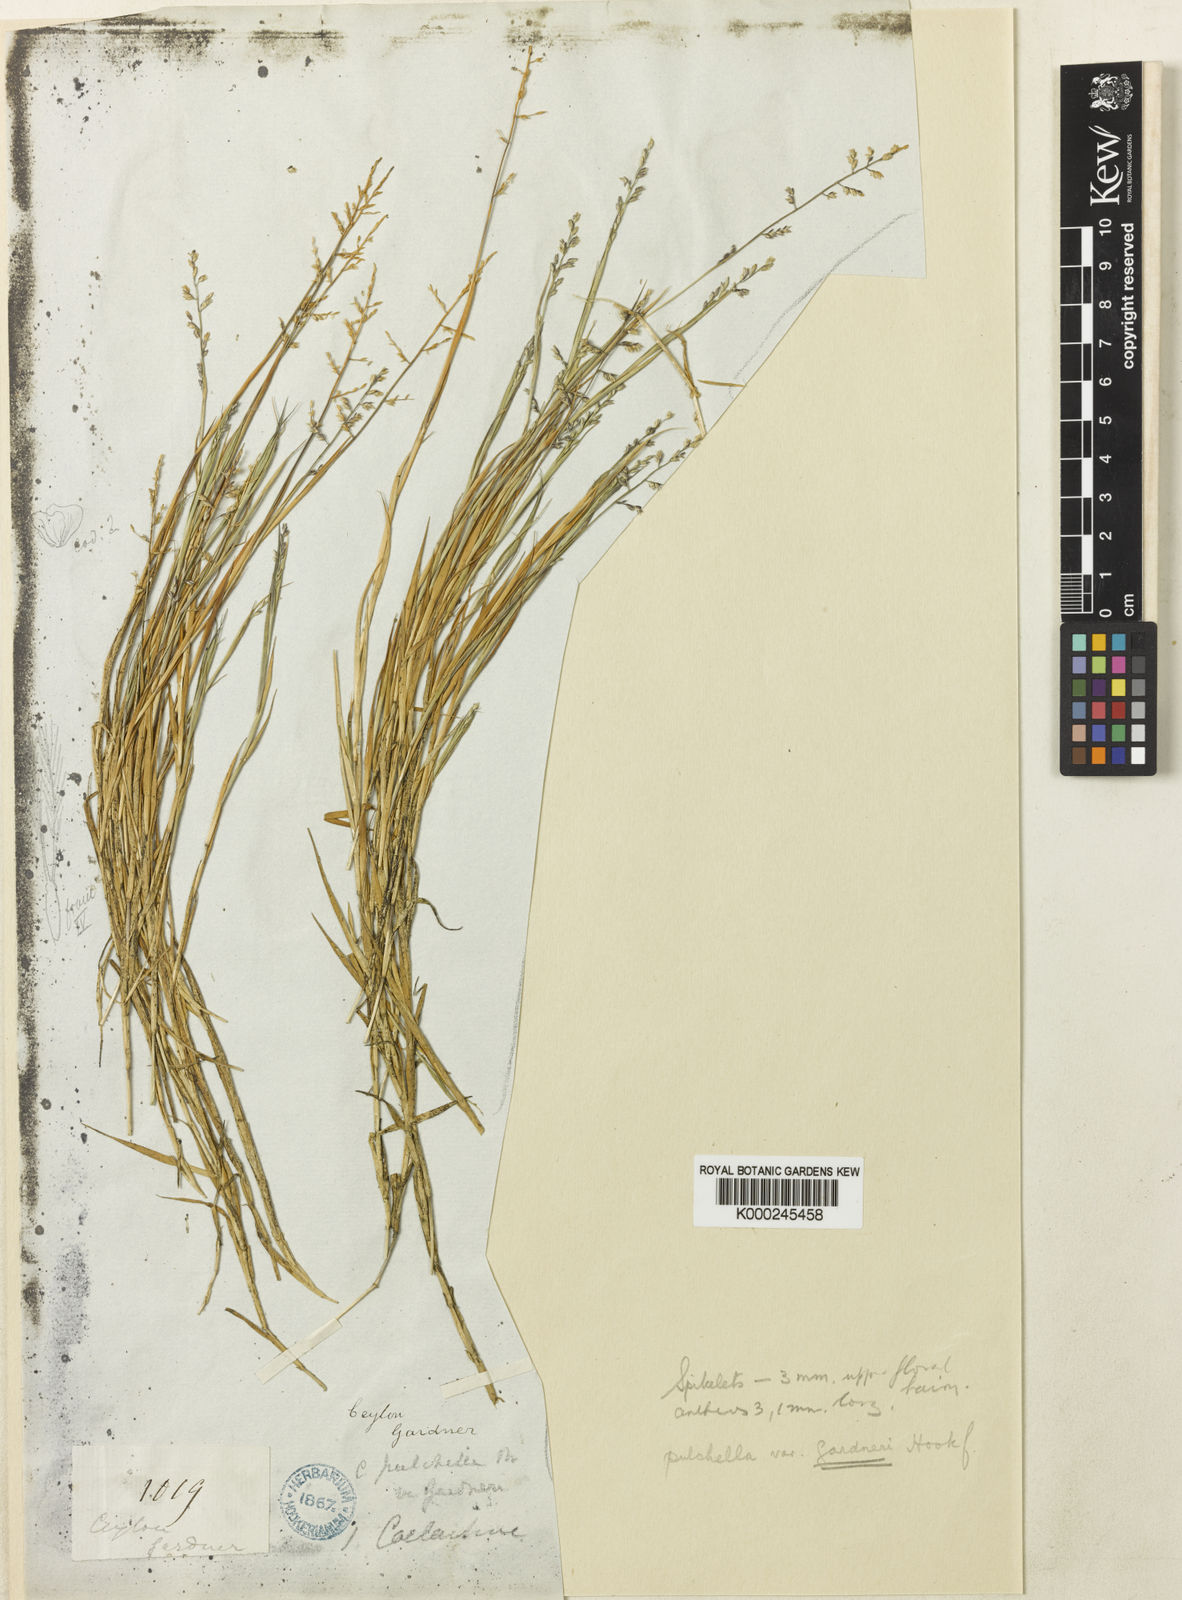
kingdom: Plantae
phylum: Tracheophyta
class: Liliopsida
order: Poales
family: Poaceae
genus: Coelachne
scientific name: Coelachne simpliciuscula
